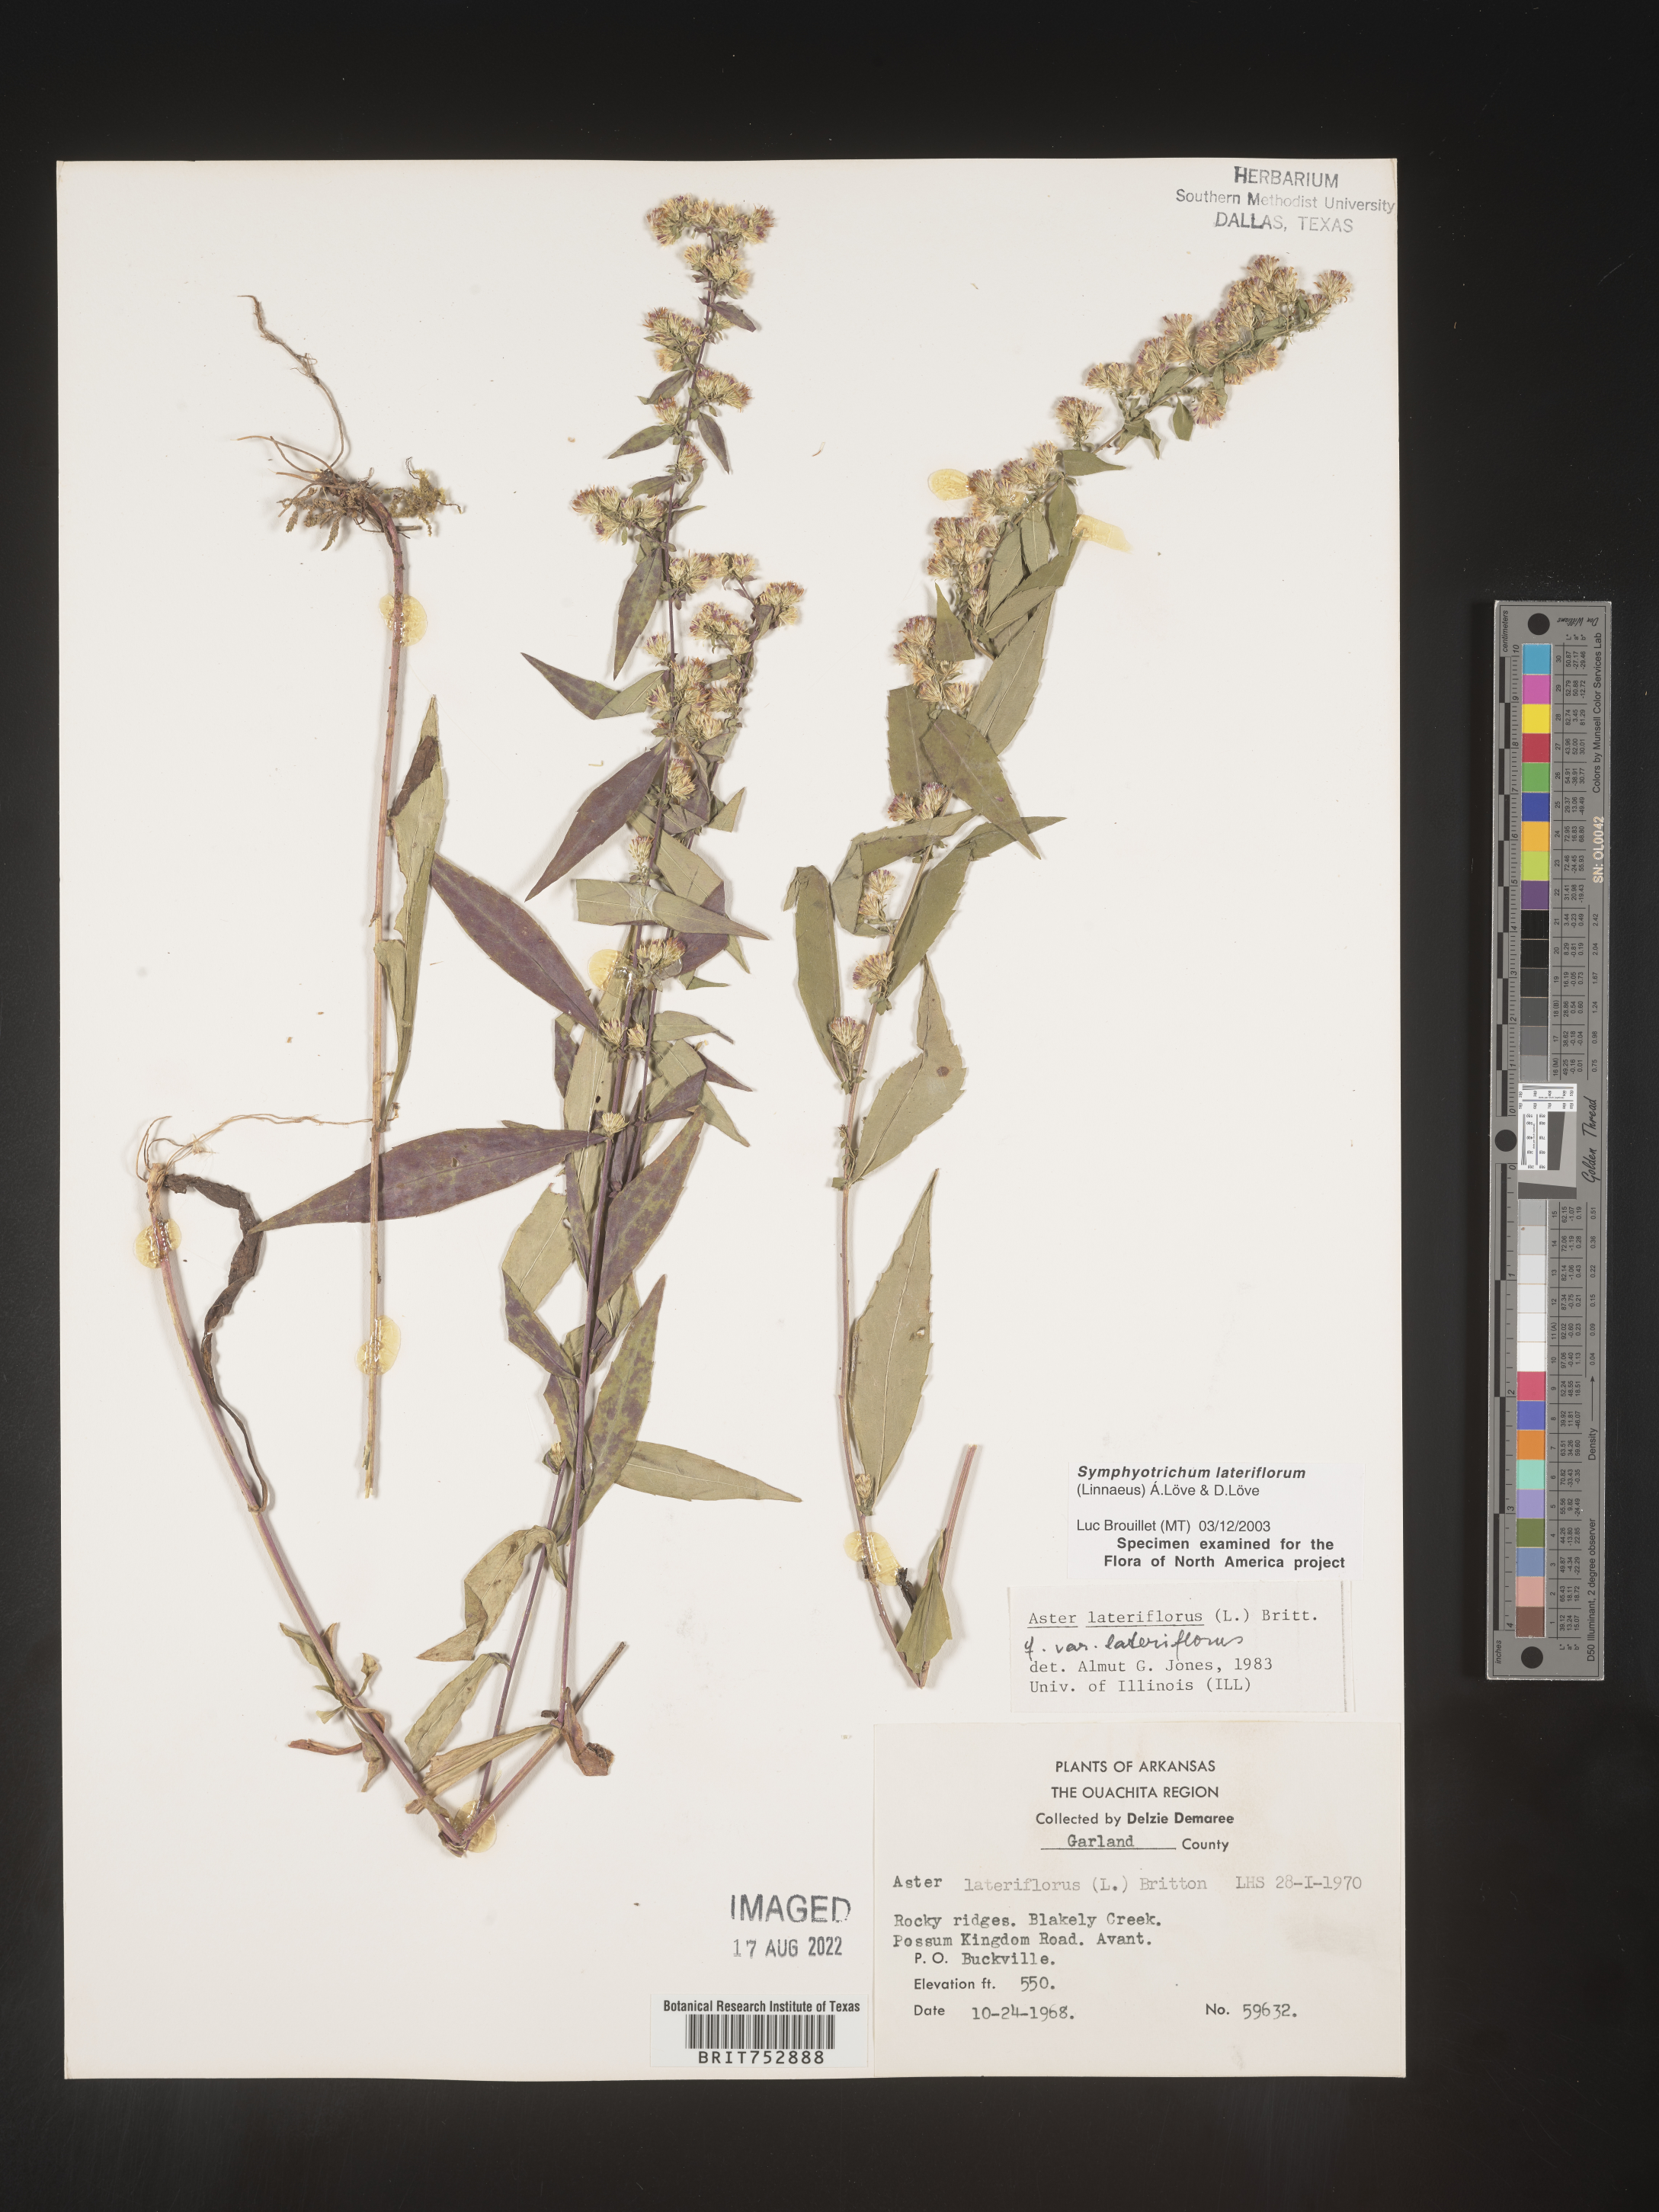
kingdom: Plantae
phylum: Tracheophyta
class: Magnoliopsida
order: Asterales
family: Asteraceae
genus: Symphyotrichum
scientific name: Symphyotrichum lateriflorum
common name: Calico aster
